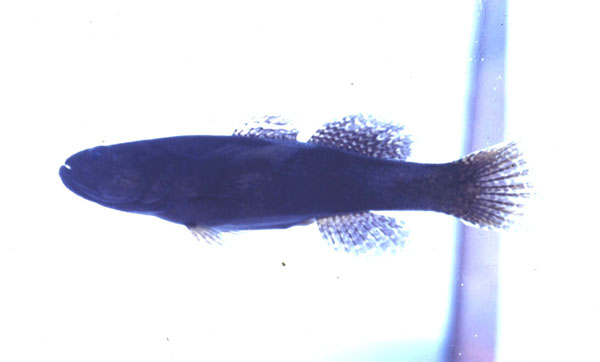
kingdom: Animalia
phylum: Chordata
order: Perciformes
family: Eleotridae
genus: Eleotris
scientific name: Eleotris melanosoma
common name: Broadhead sleeper
